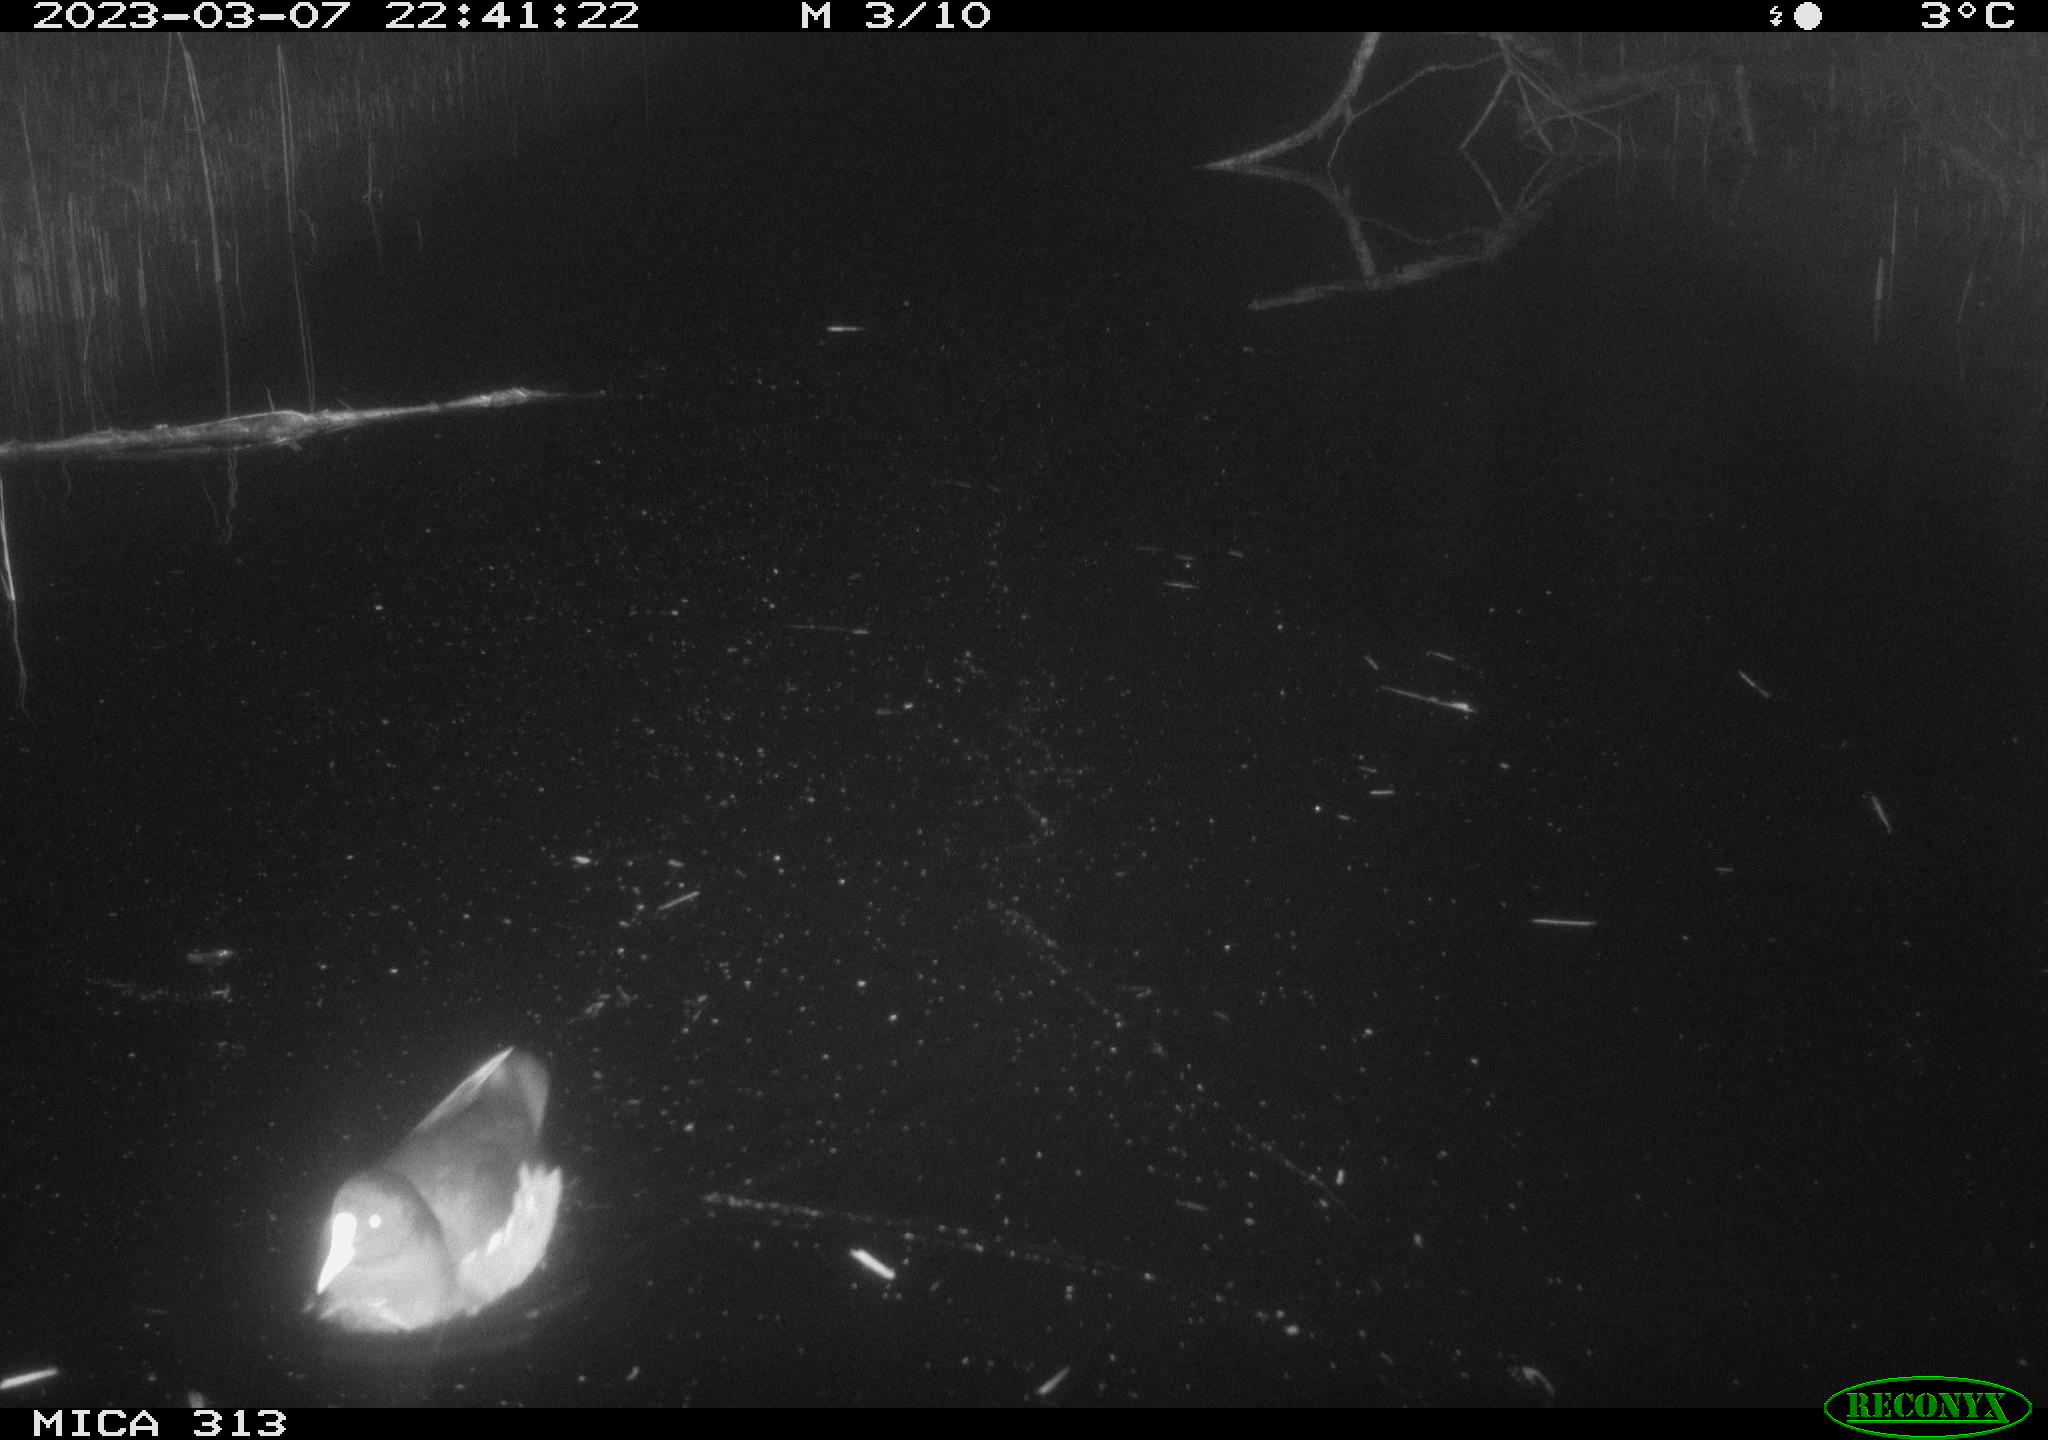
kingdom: Animalia
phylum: Chordata
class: Aves
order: Gruiformes
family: Rallidae
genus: Gallinula
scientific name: Gallinula chloropus
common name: Common moorhen
